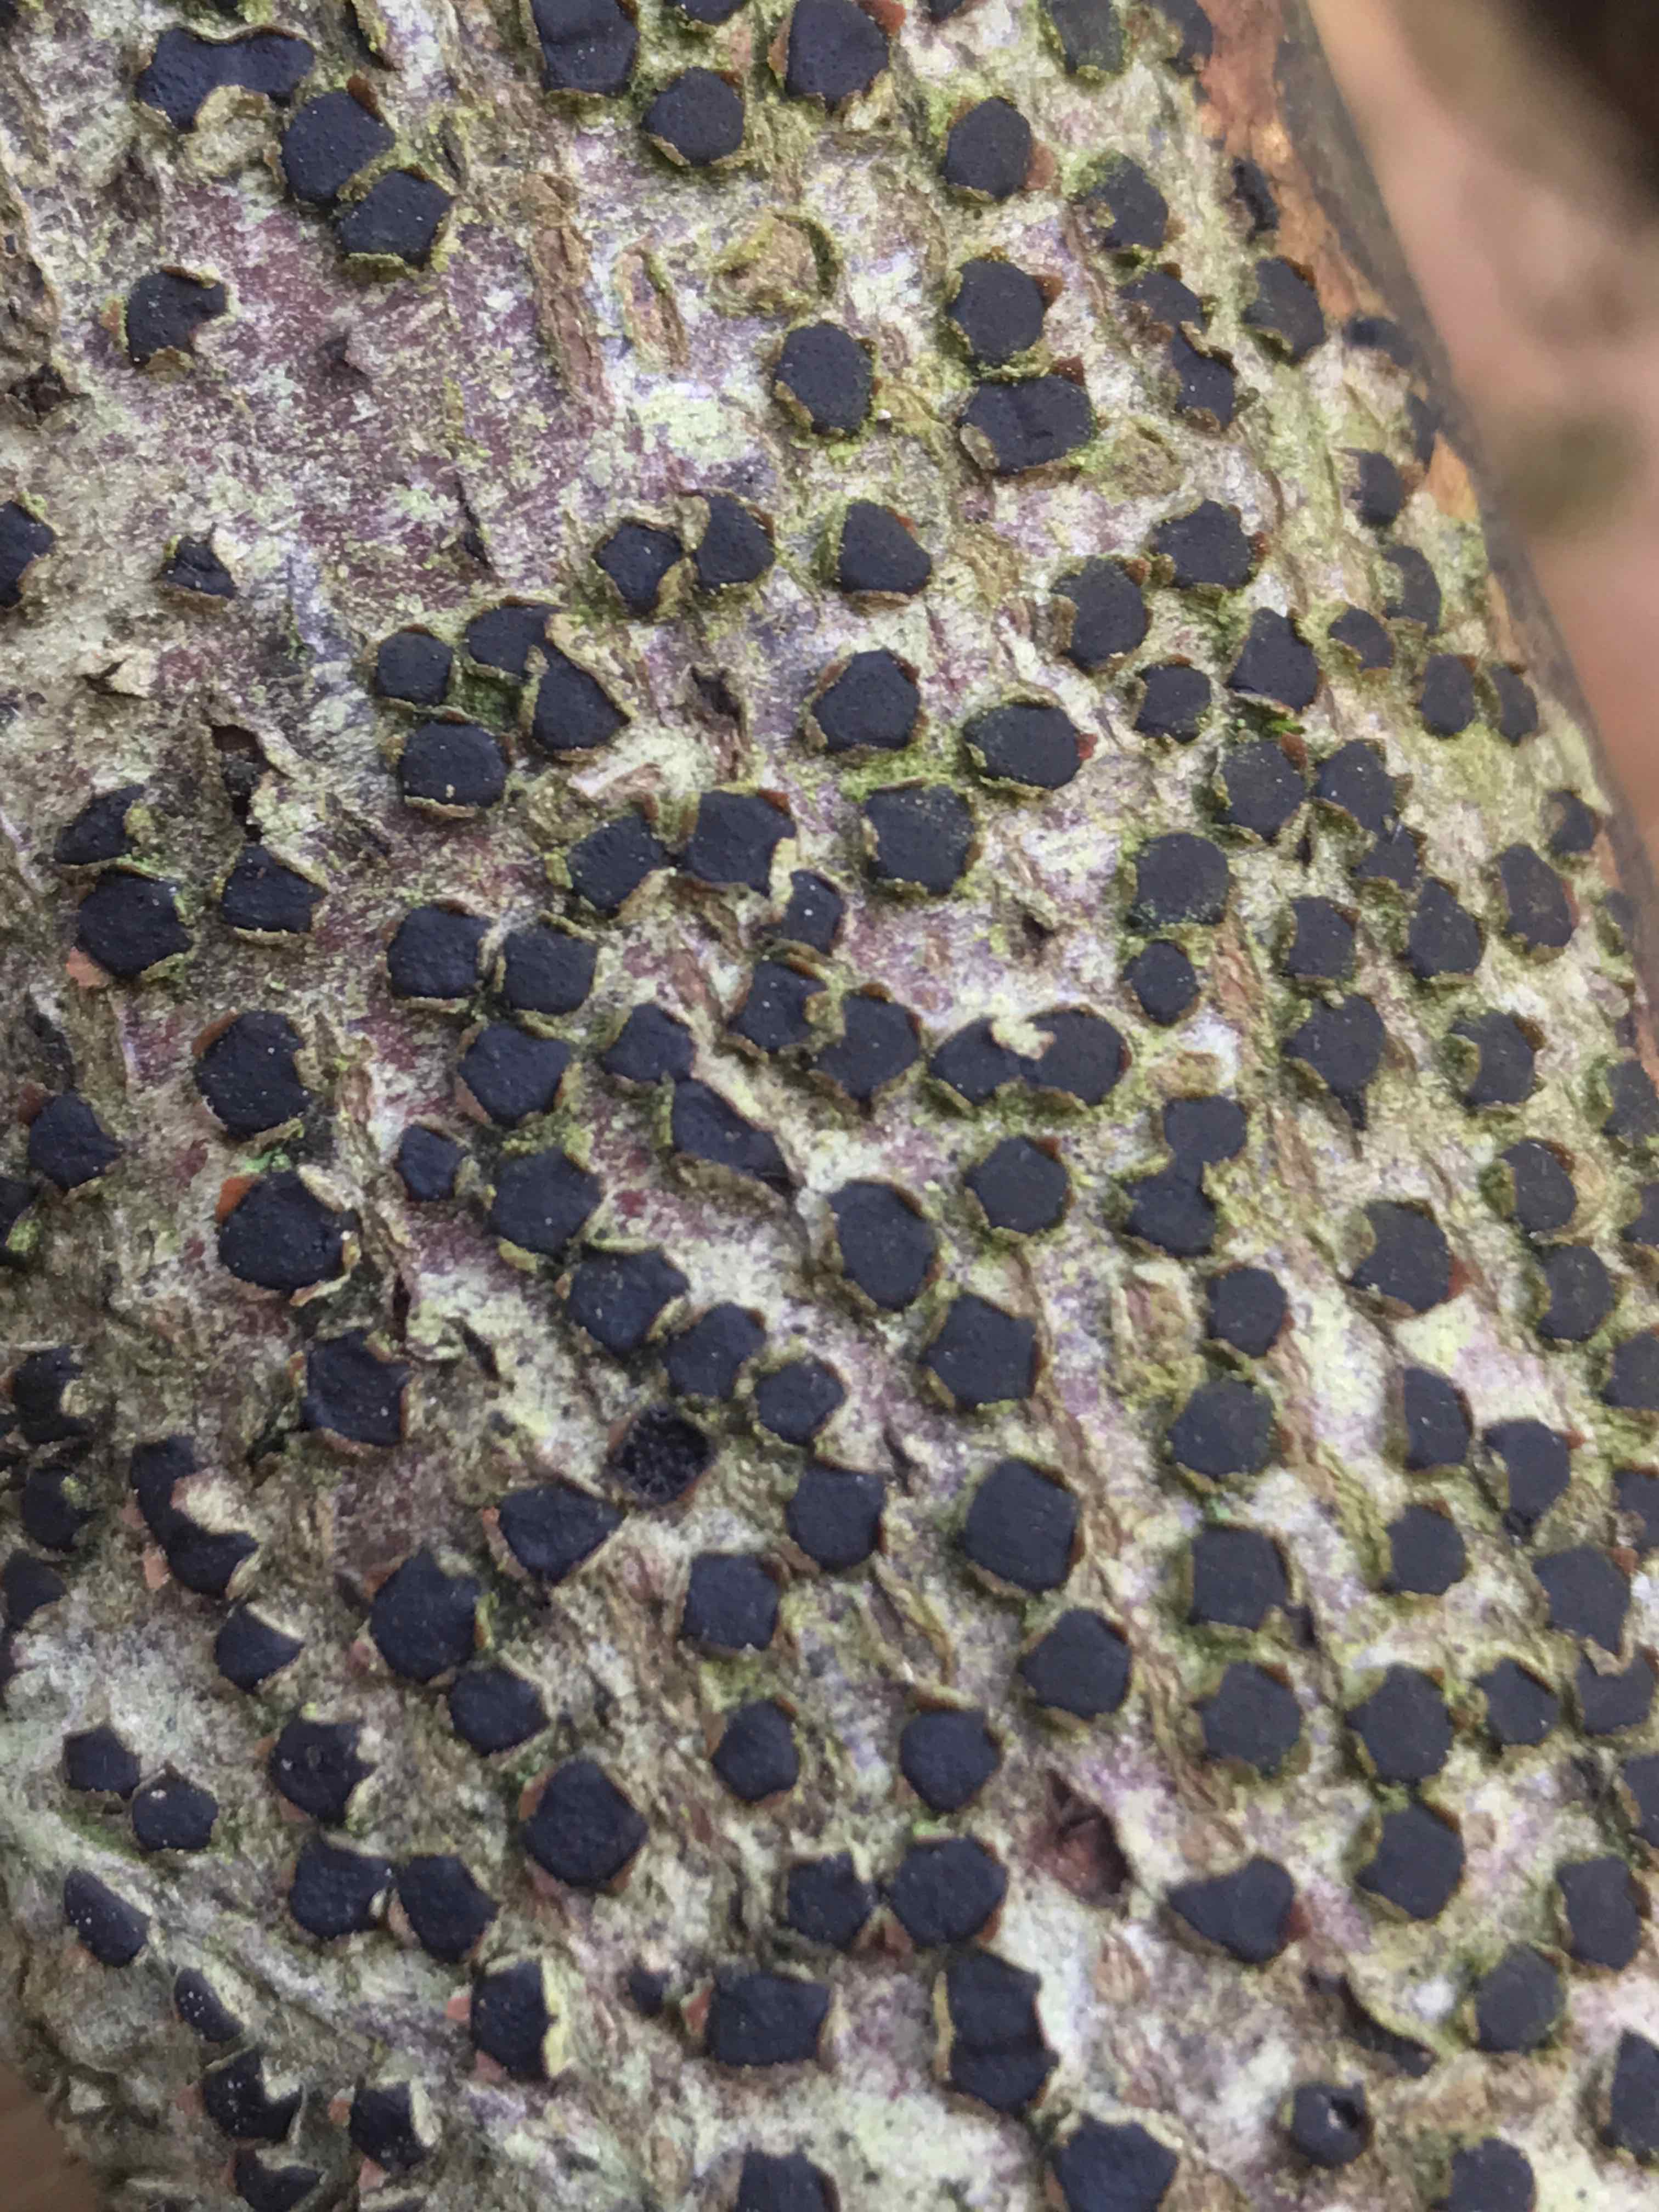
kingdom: Fungi
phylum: Ascomycota
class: Sordariomycetes
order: Xylariales
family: Diatrypaceae
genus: Diatrype
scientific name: Diatrype disciformis
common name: kant-kulskorpe
